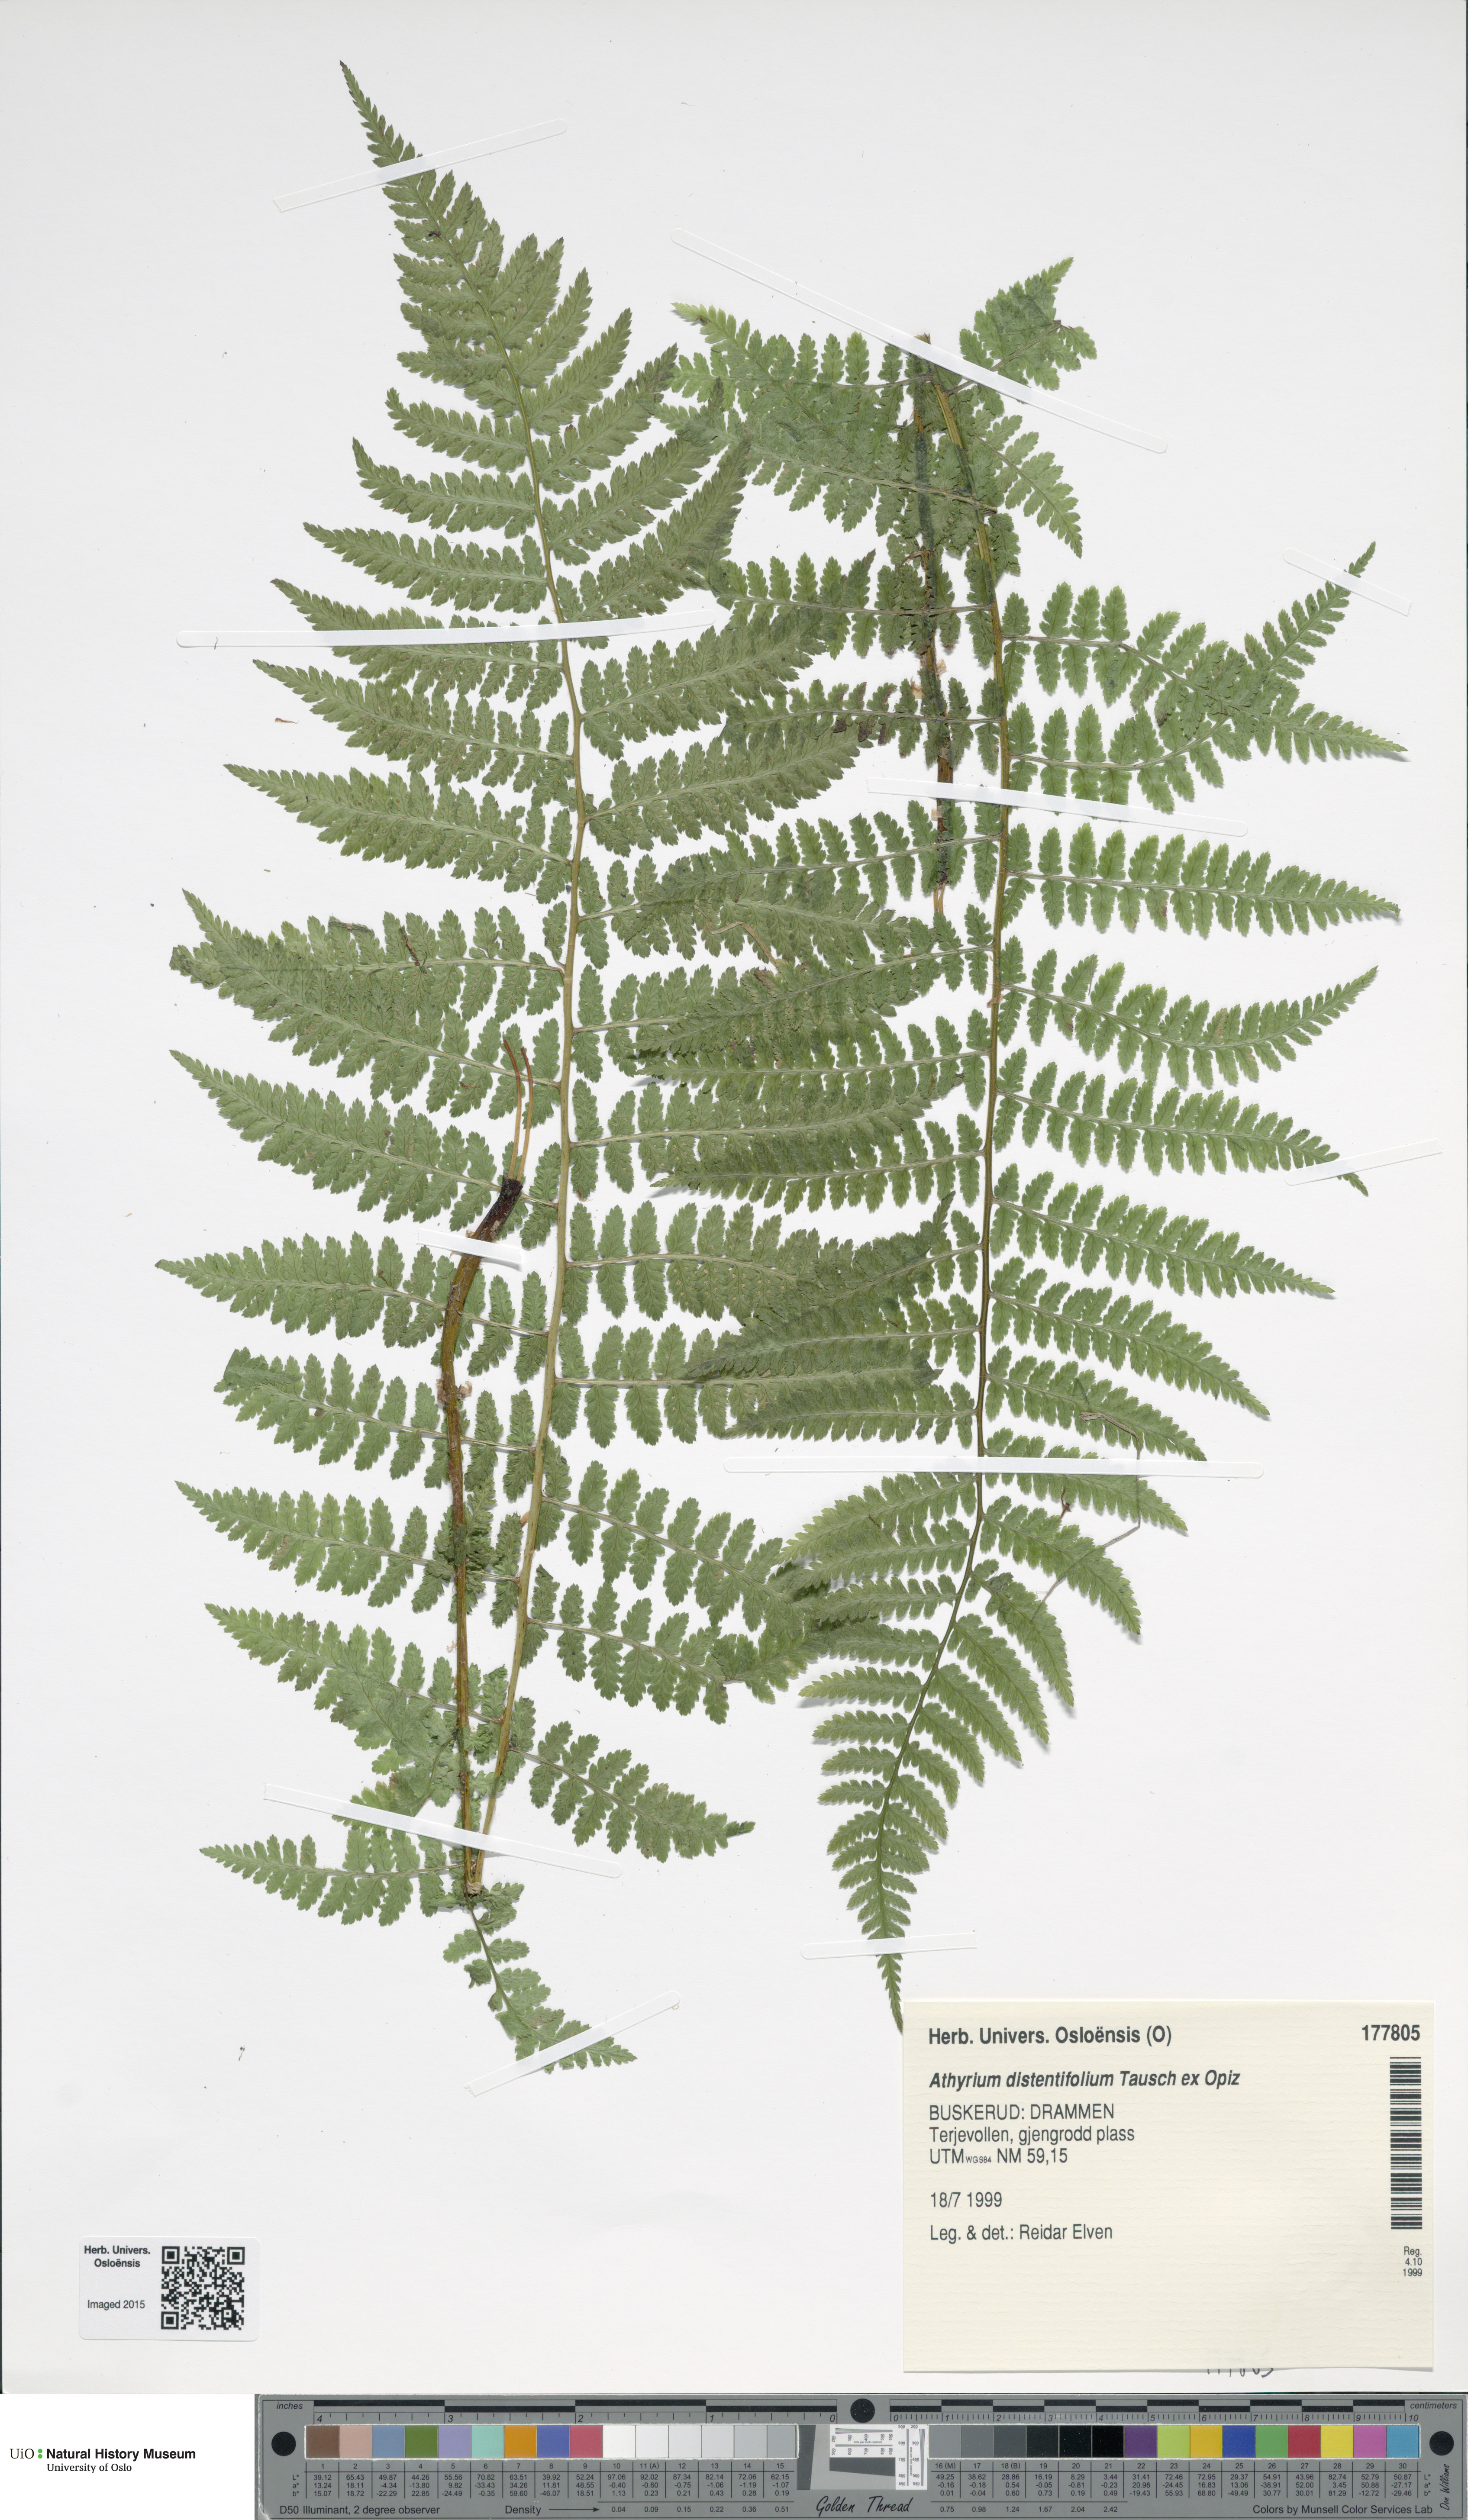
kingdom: Plantae
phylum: Tracheophyta
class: Polypodiopsida
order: Polypodiales
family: Athyriaceae
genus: Pseudathyrium
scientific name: Pseudathyrium alpestre
